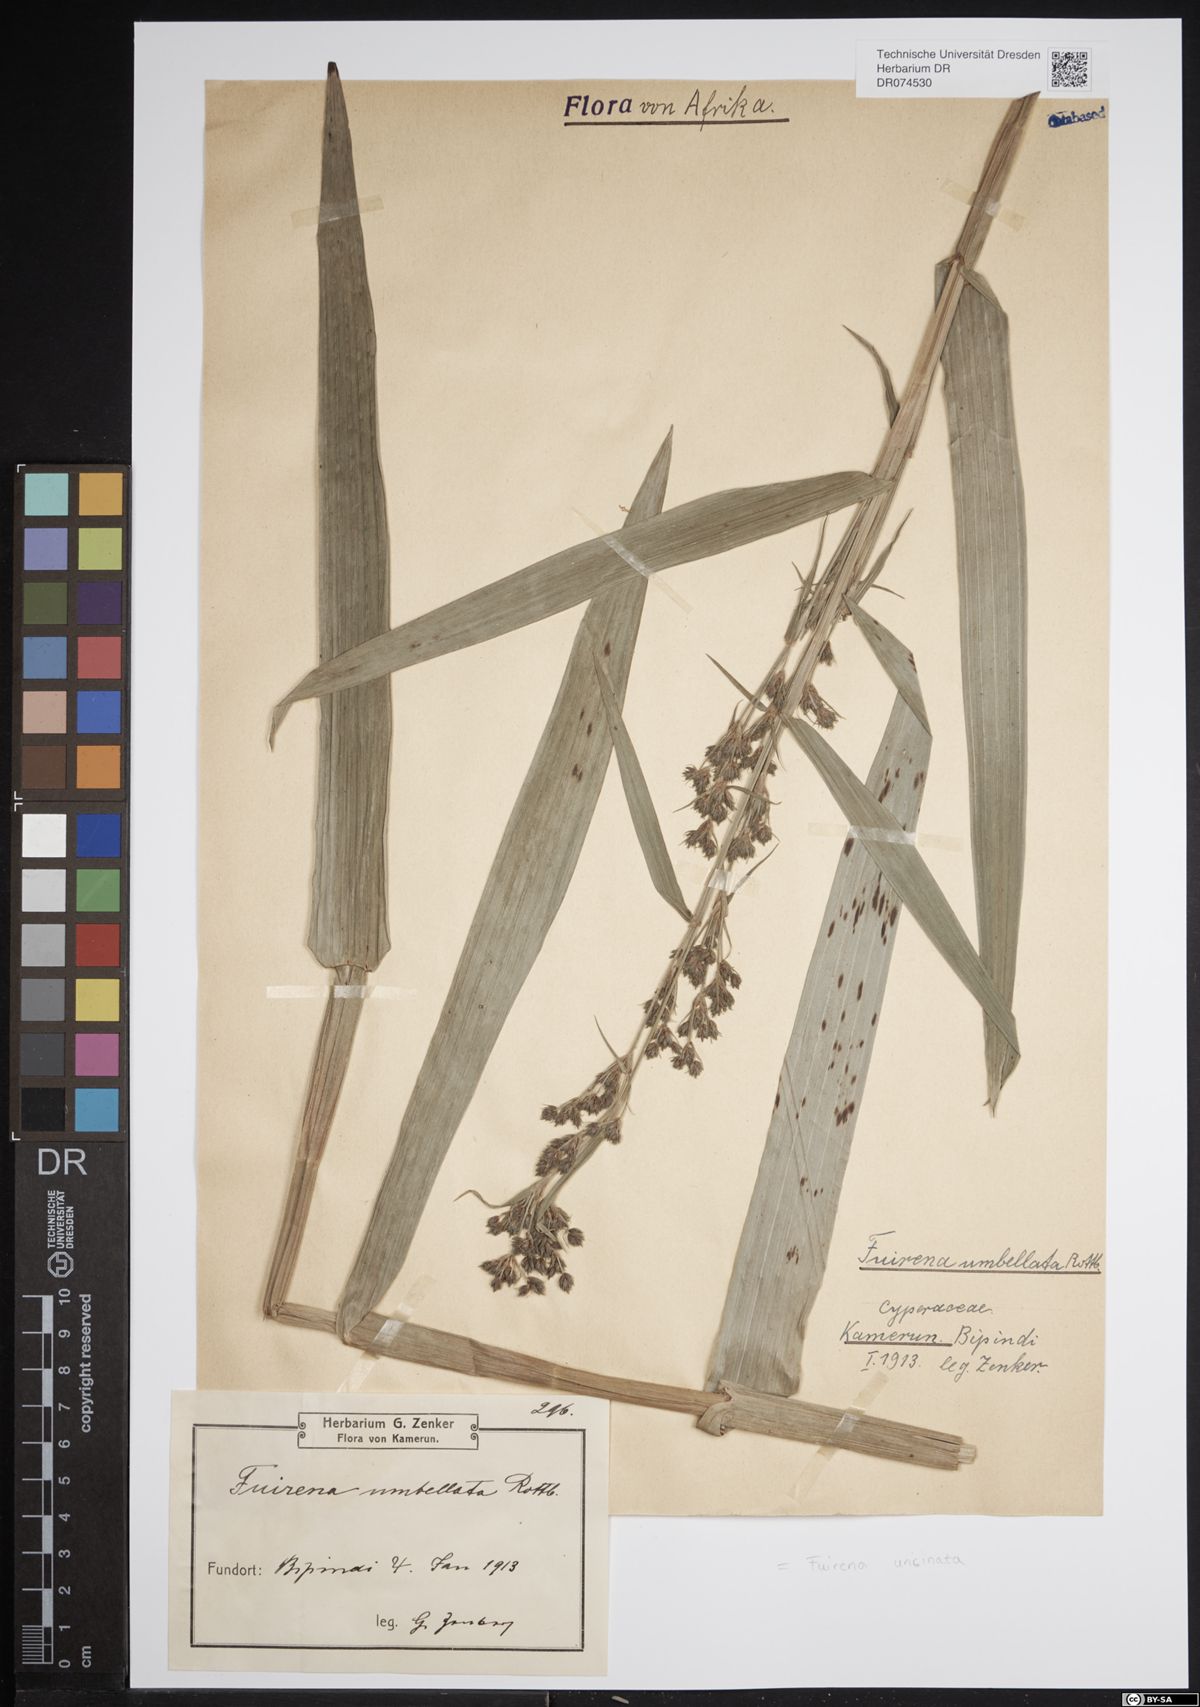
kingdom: Plantae
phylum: Tracheophyta
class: Liliopsida
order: Poales
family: Cyperaceae
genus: Fuirena
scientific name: Fuirena ciliaris
